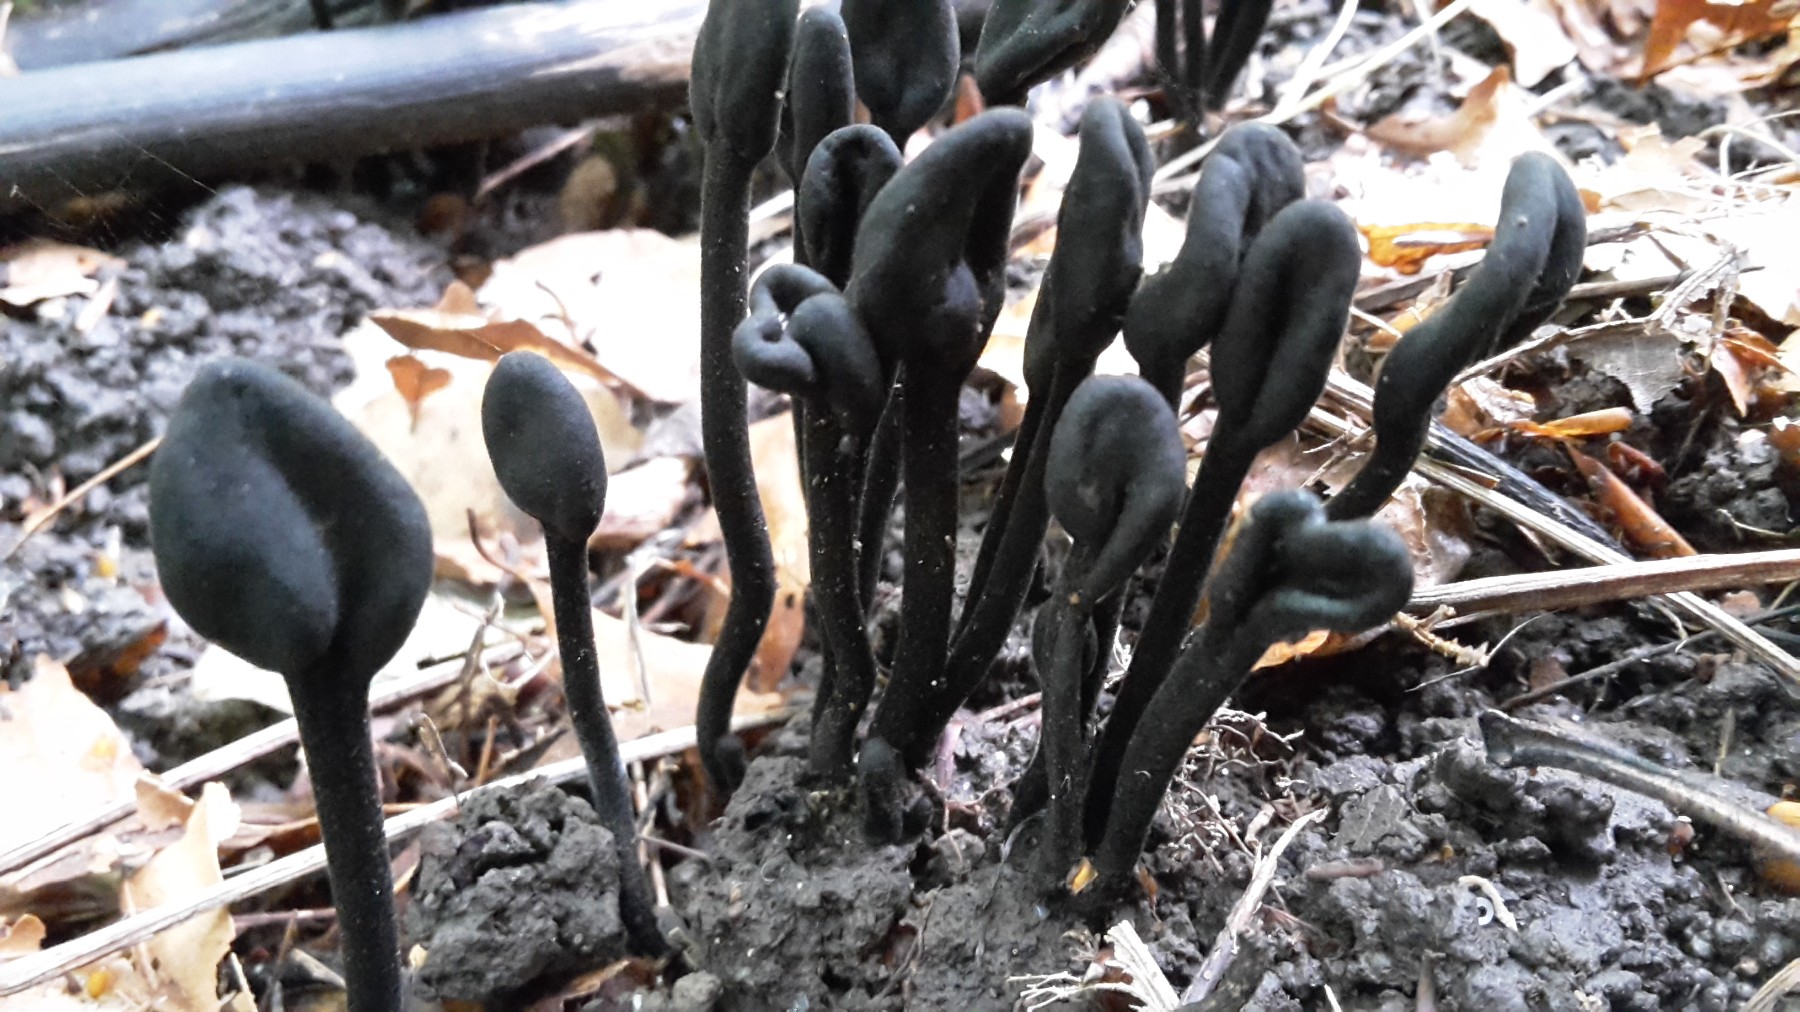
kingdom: Fungi
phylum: Ascomycota
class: Geoglossomycetes
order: Geoglossales
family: Geoglossaceae
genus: Trichoglossum
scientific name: Trichoglossum hirsutum
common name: håret jordtunge
